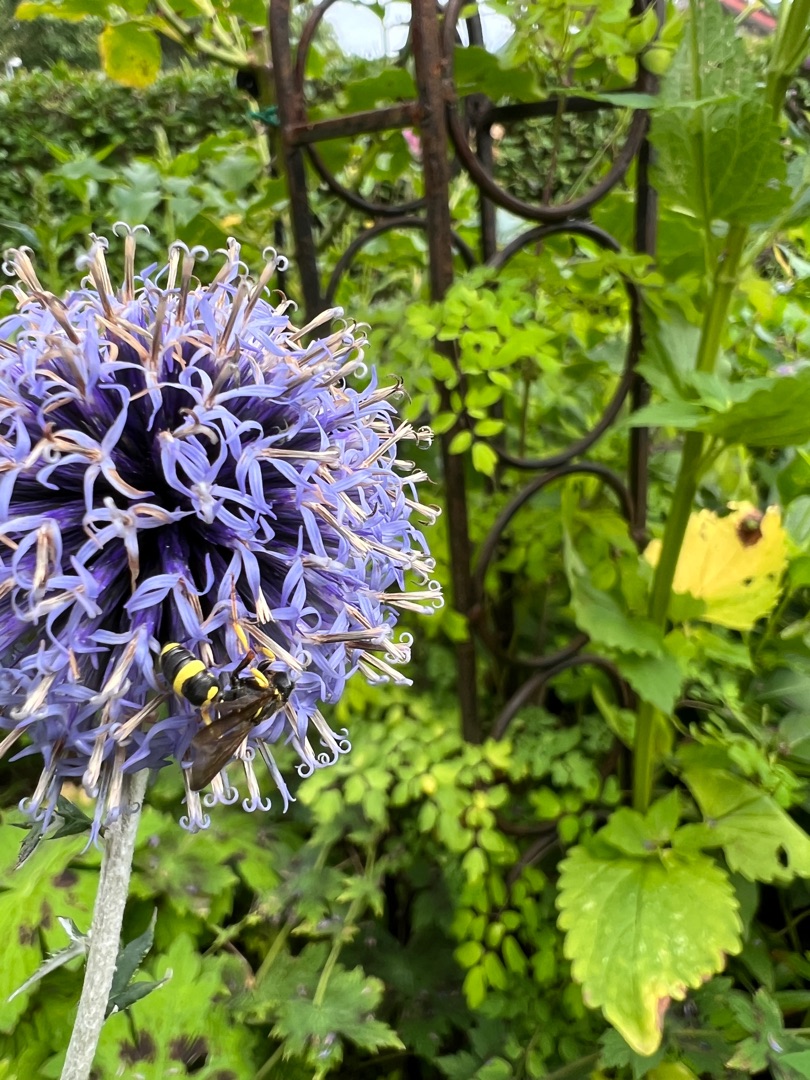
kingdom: Animalia
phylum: Arthropoda
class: Insecta
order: Diptera
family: Syrphidae
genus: Chrysotoxum
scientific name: Chrysotoxum bicincta
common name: Tobåndet hvepsesvirreflue
